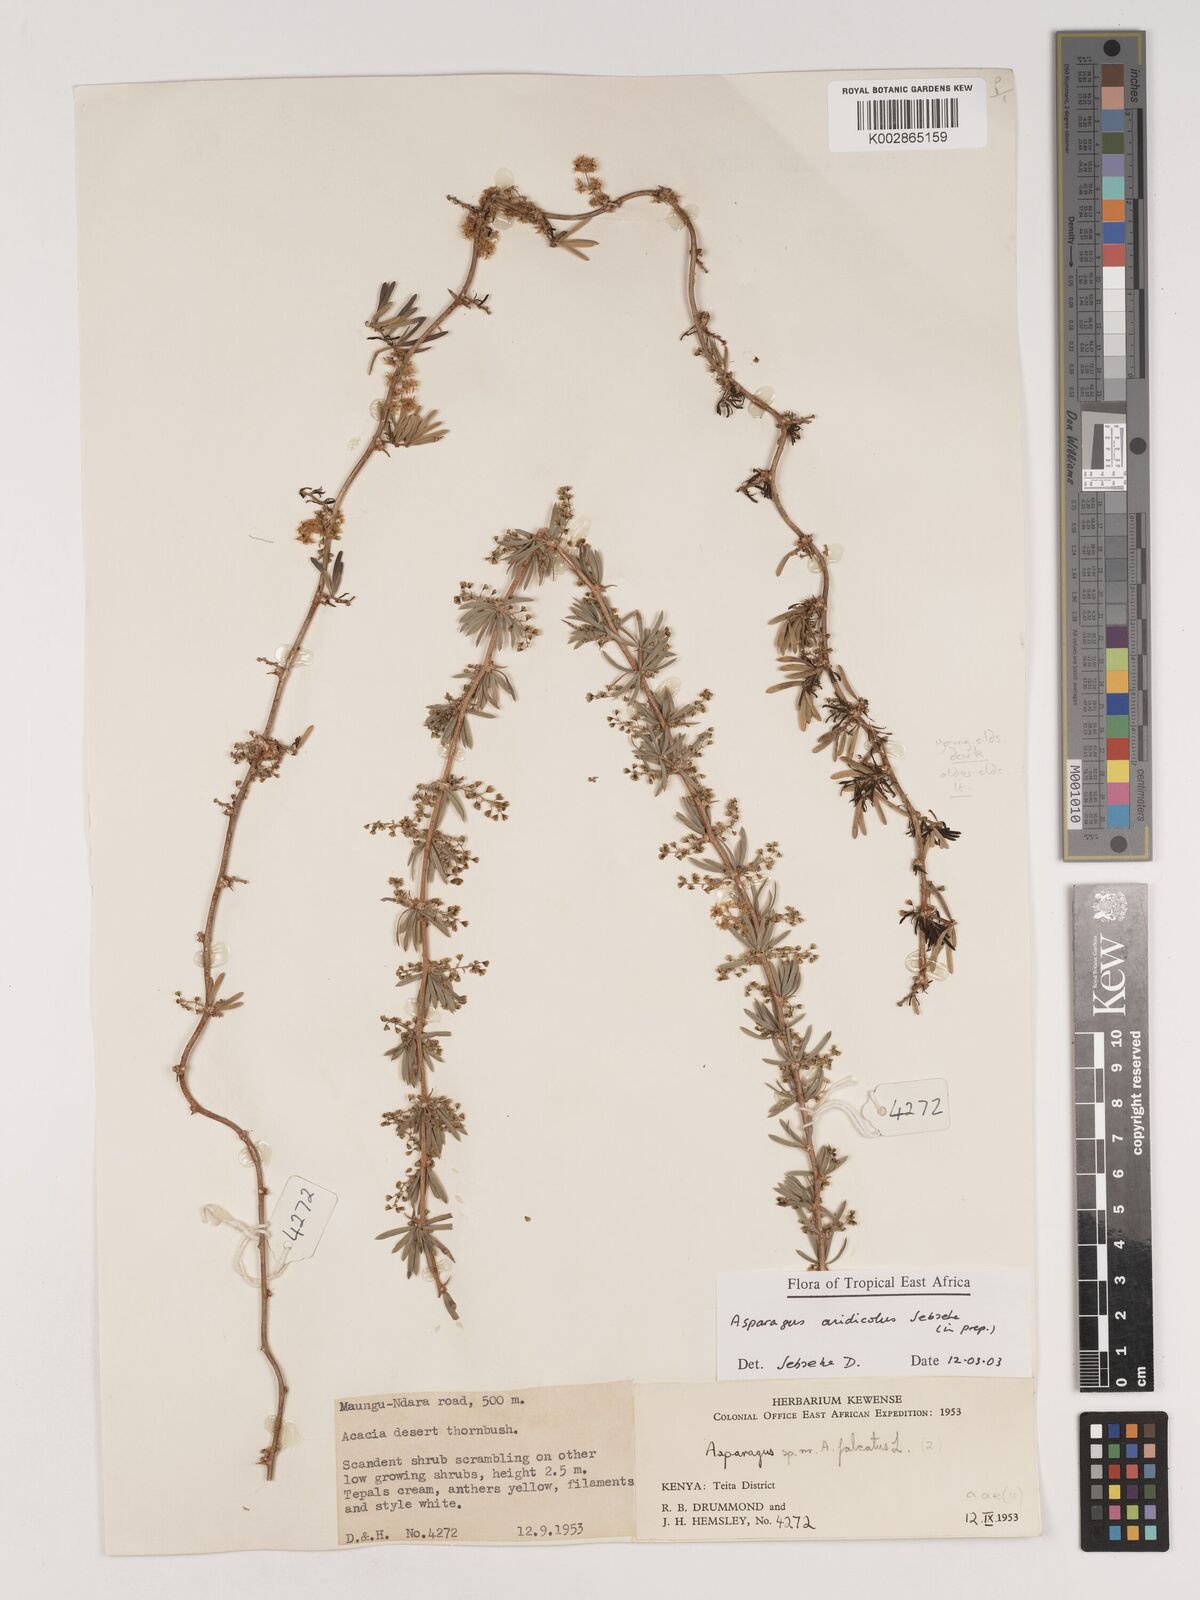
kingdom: Plantae
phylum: Tracheophyta
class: Liliopsida
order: Asparagales
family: Asparagaceae
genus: Asparagus
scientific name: Asparagus aridicola
